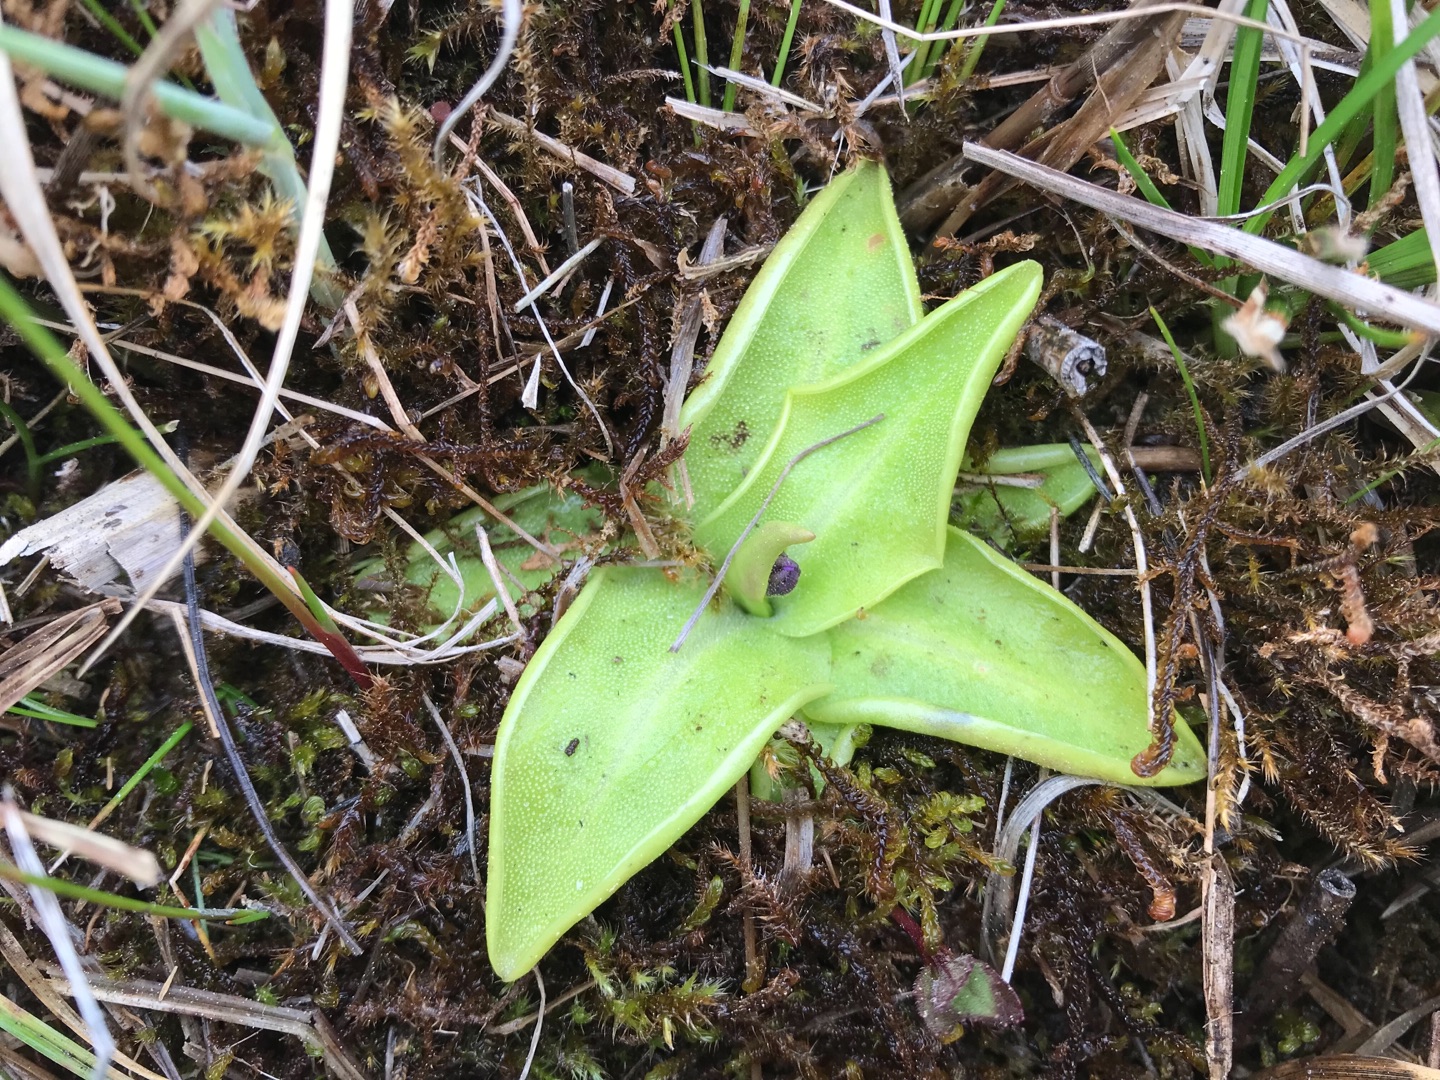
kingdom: Plantae
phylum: Tracheophyta
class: Magnoliopsida
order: Lamiales
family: Lentibulariaceae
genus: Pinguicula
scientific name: Pinguicula vulgaris
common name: Vibefedt
